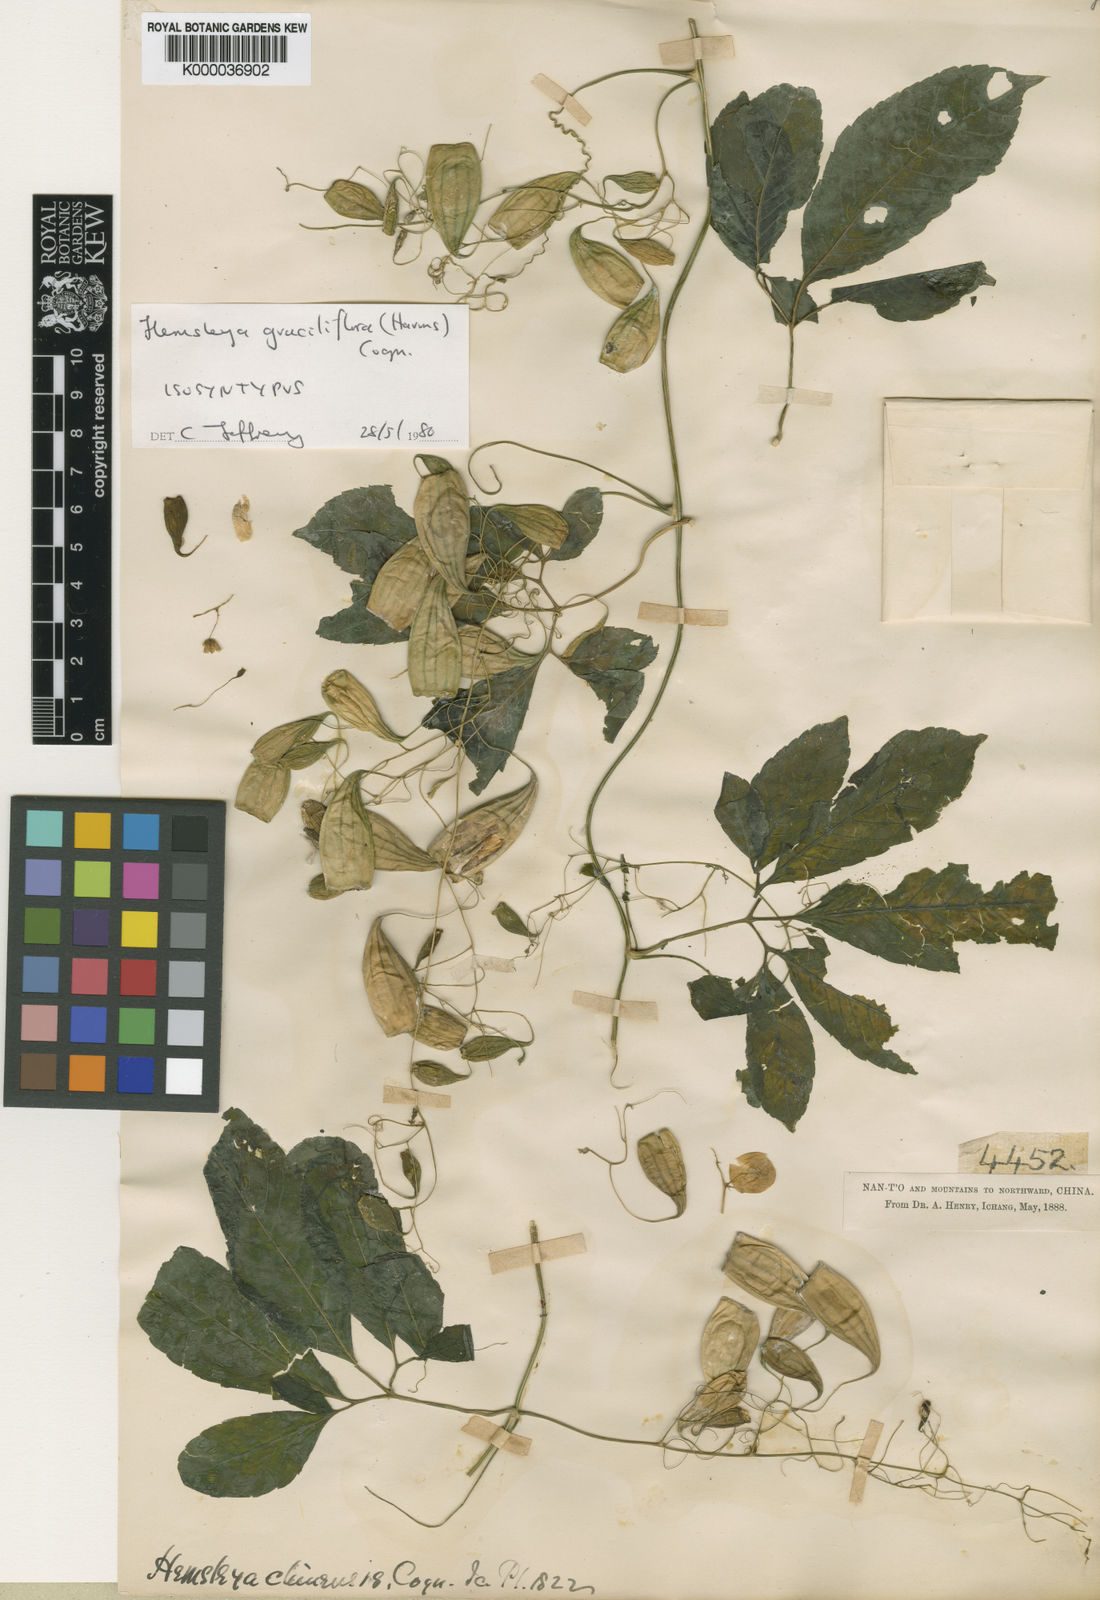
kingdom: Plantae
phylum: Tracheophyta
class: Magnoliopsida
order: Cucurbitales
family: Cucurbitaceae
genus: Hemsleya
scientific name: Hemsleya graciliflora
